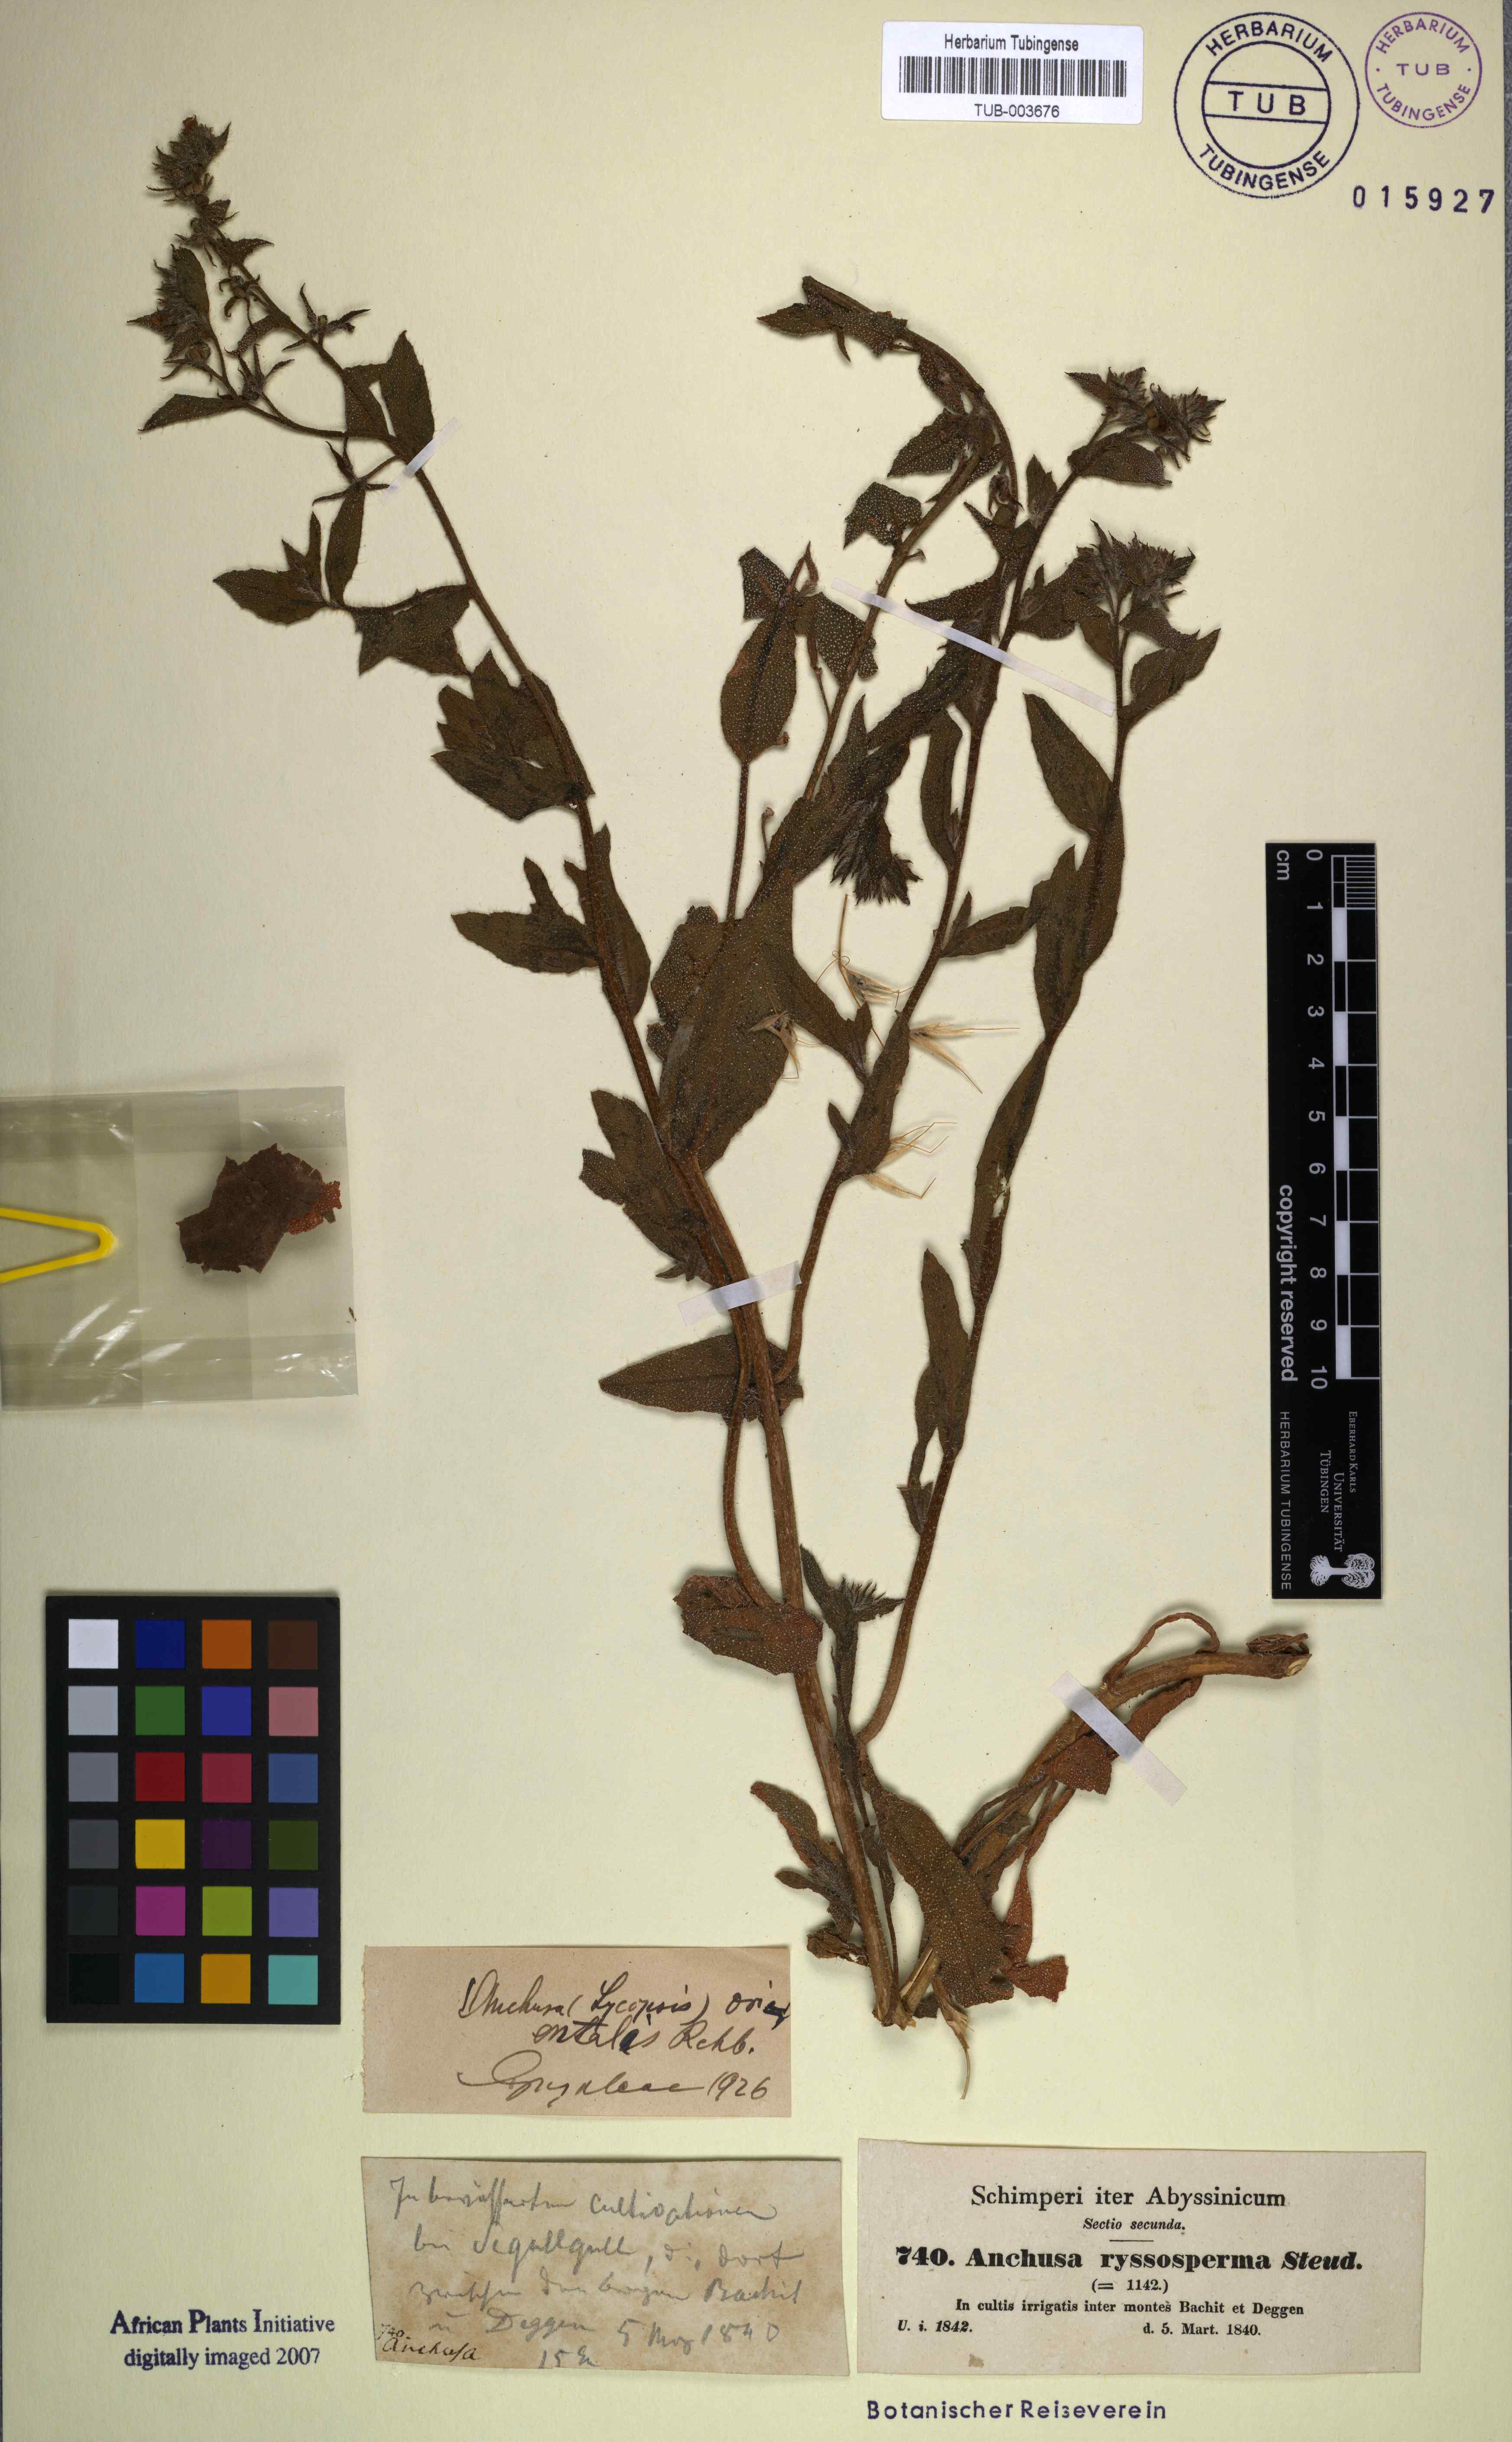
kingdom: Plantae
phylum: Tracheophyta
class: Magnoliopsida
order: Boraginales
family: Boraginaceae
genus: Lycopsis
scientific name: Lycopsis arvensis
